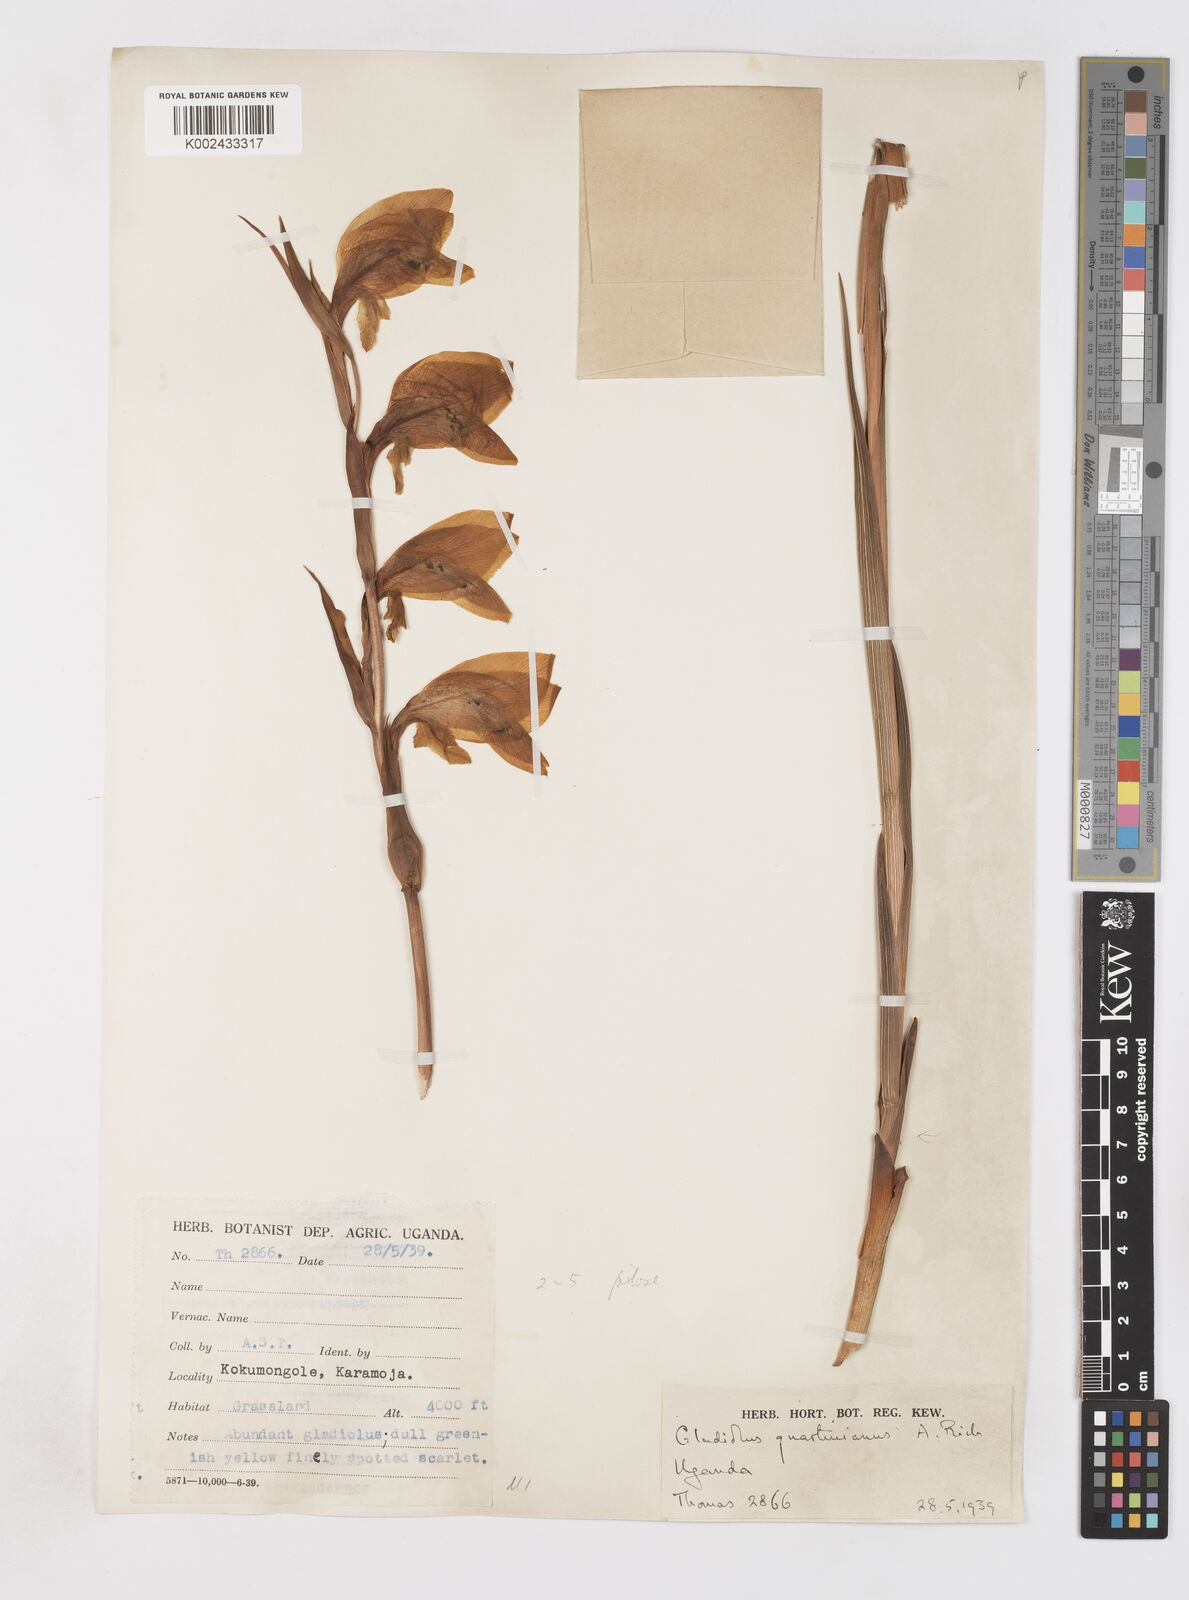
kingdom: Plantae
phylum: Tracheophyta
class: Liliopsida
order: Asparagales
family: Iridaceae
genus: Gladiolus
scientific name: Gladiolus dalenii
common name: Cornflag
